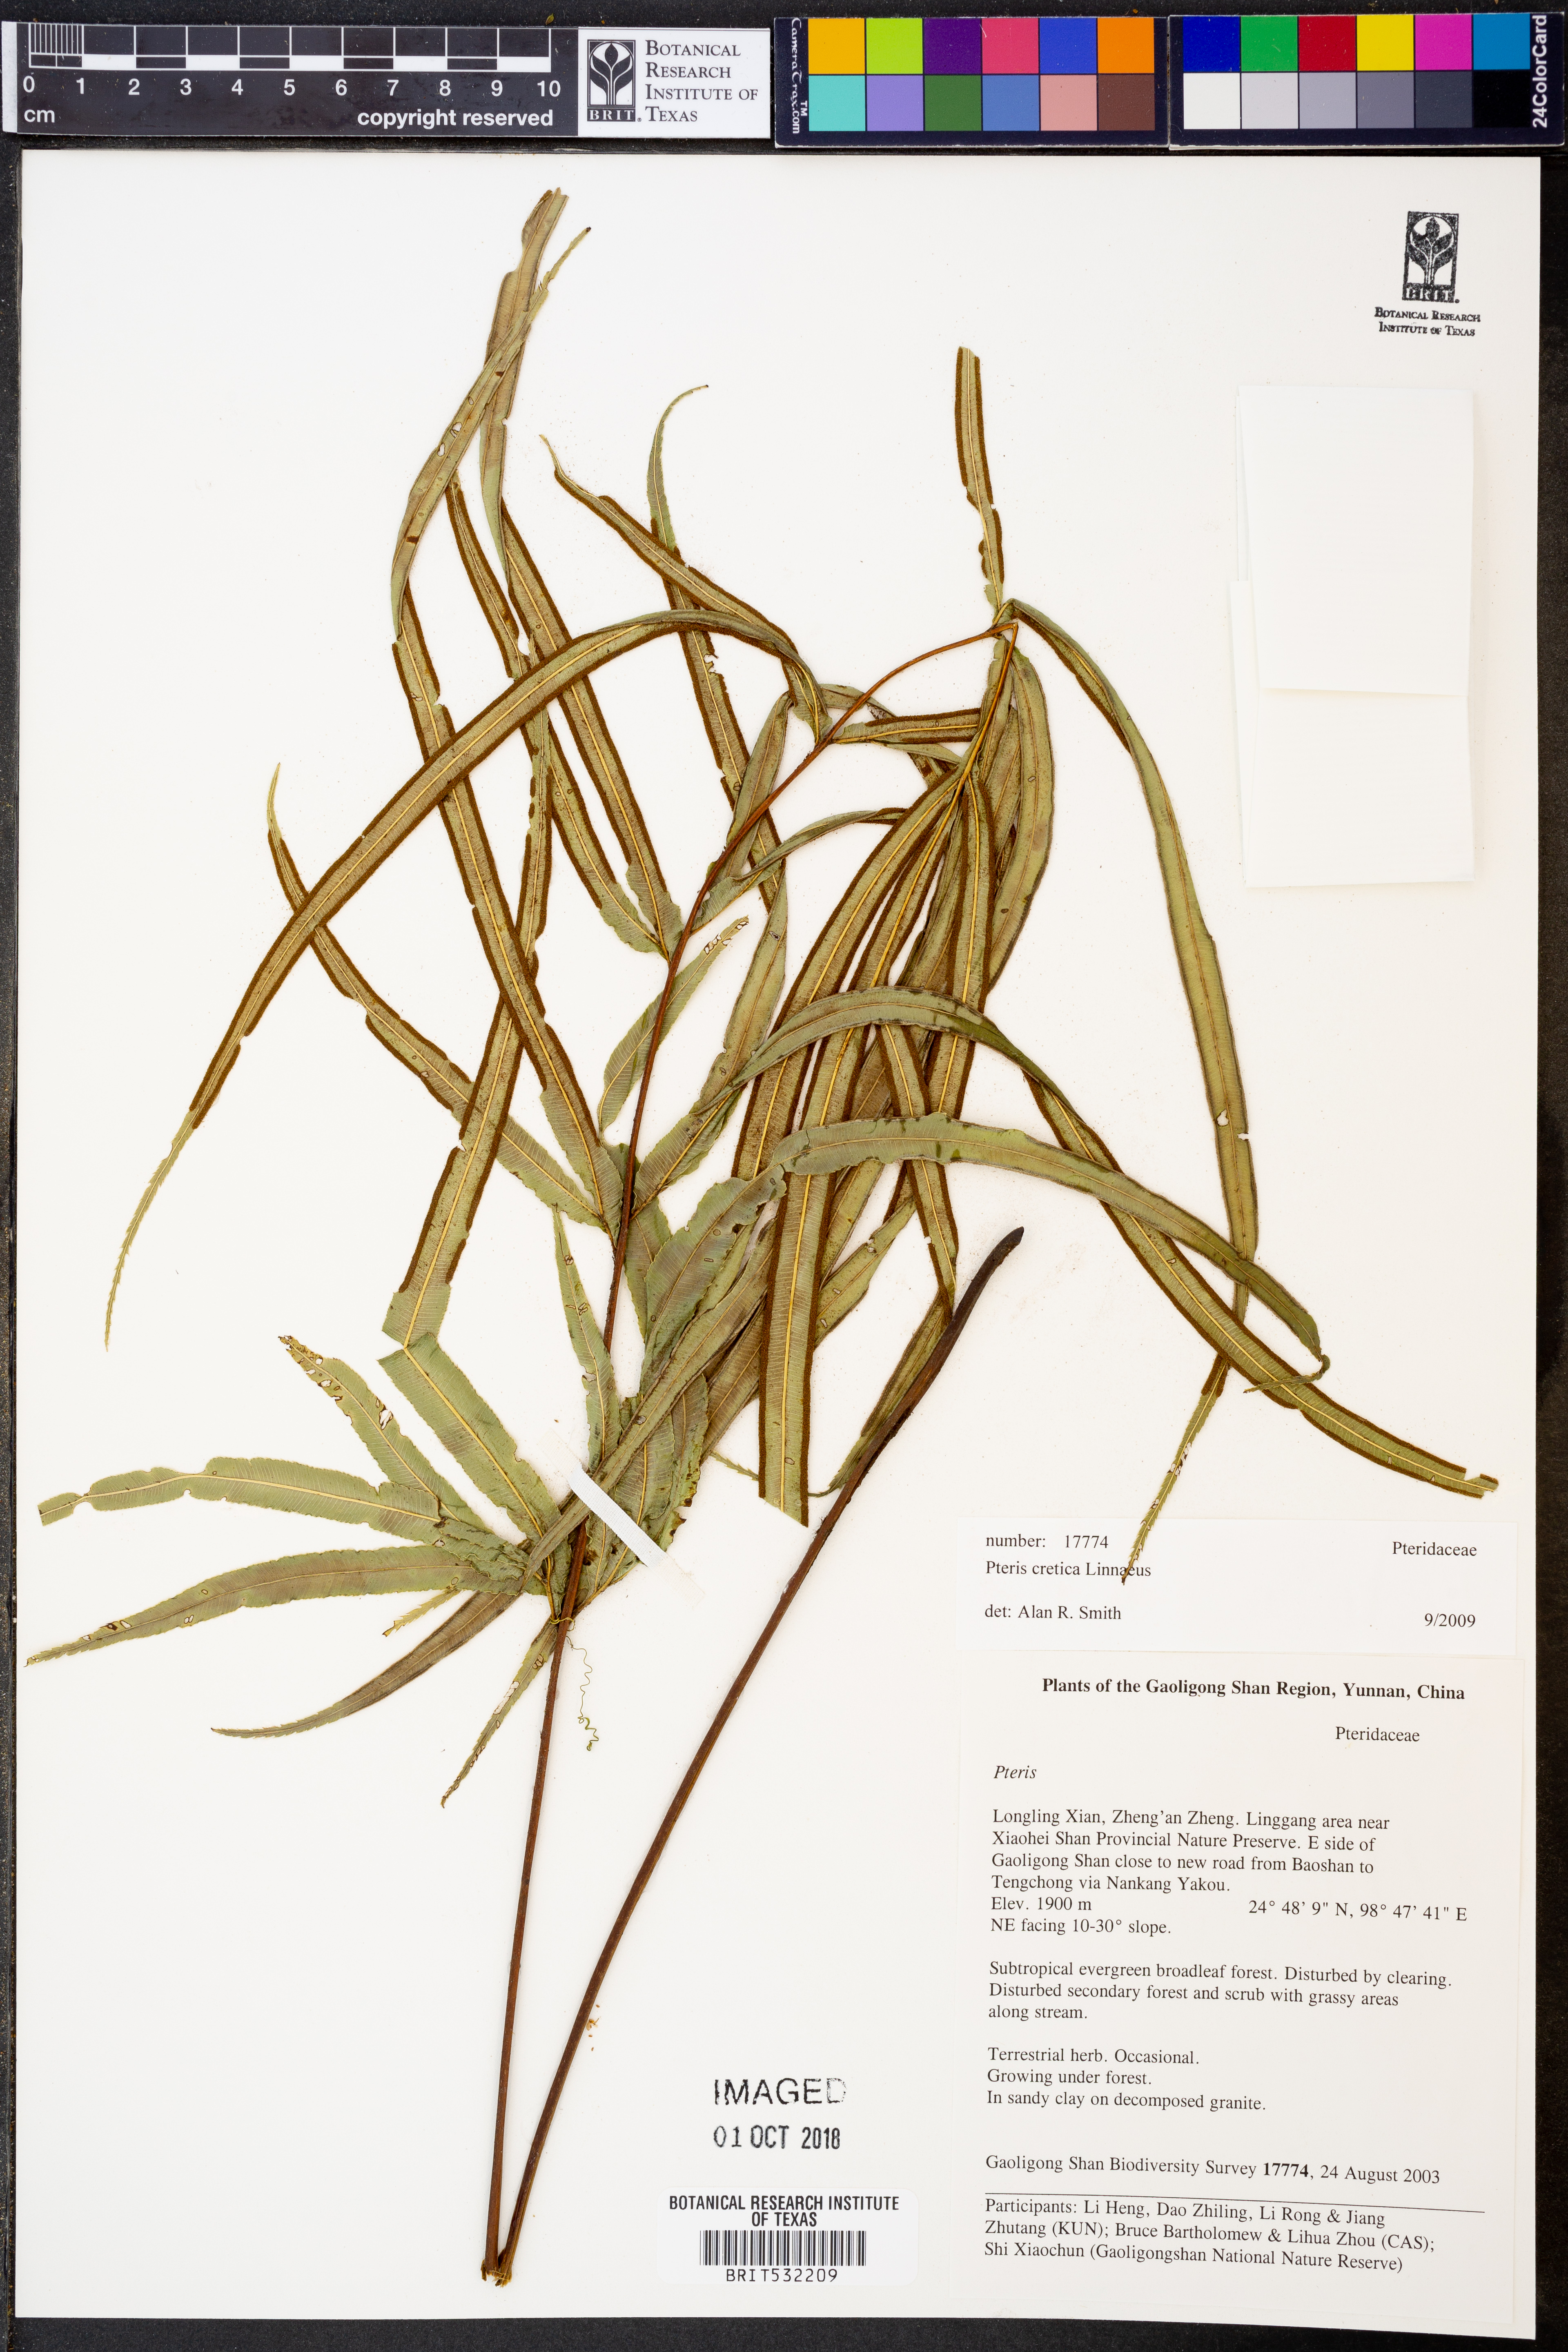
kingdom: Plantae
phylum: Tracheophyta
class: Polypodiopsida
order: Polypodiales
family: Pteridaceae
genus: Pteris
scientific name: Pteris cretica
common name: Ribbon fern
